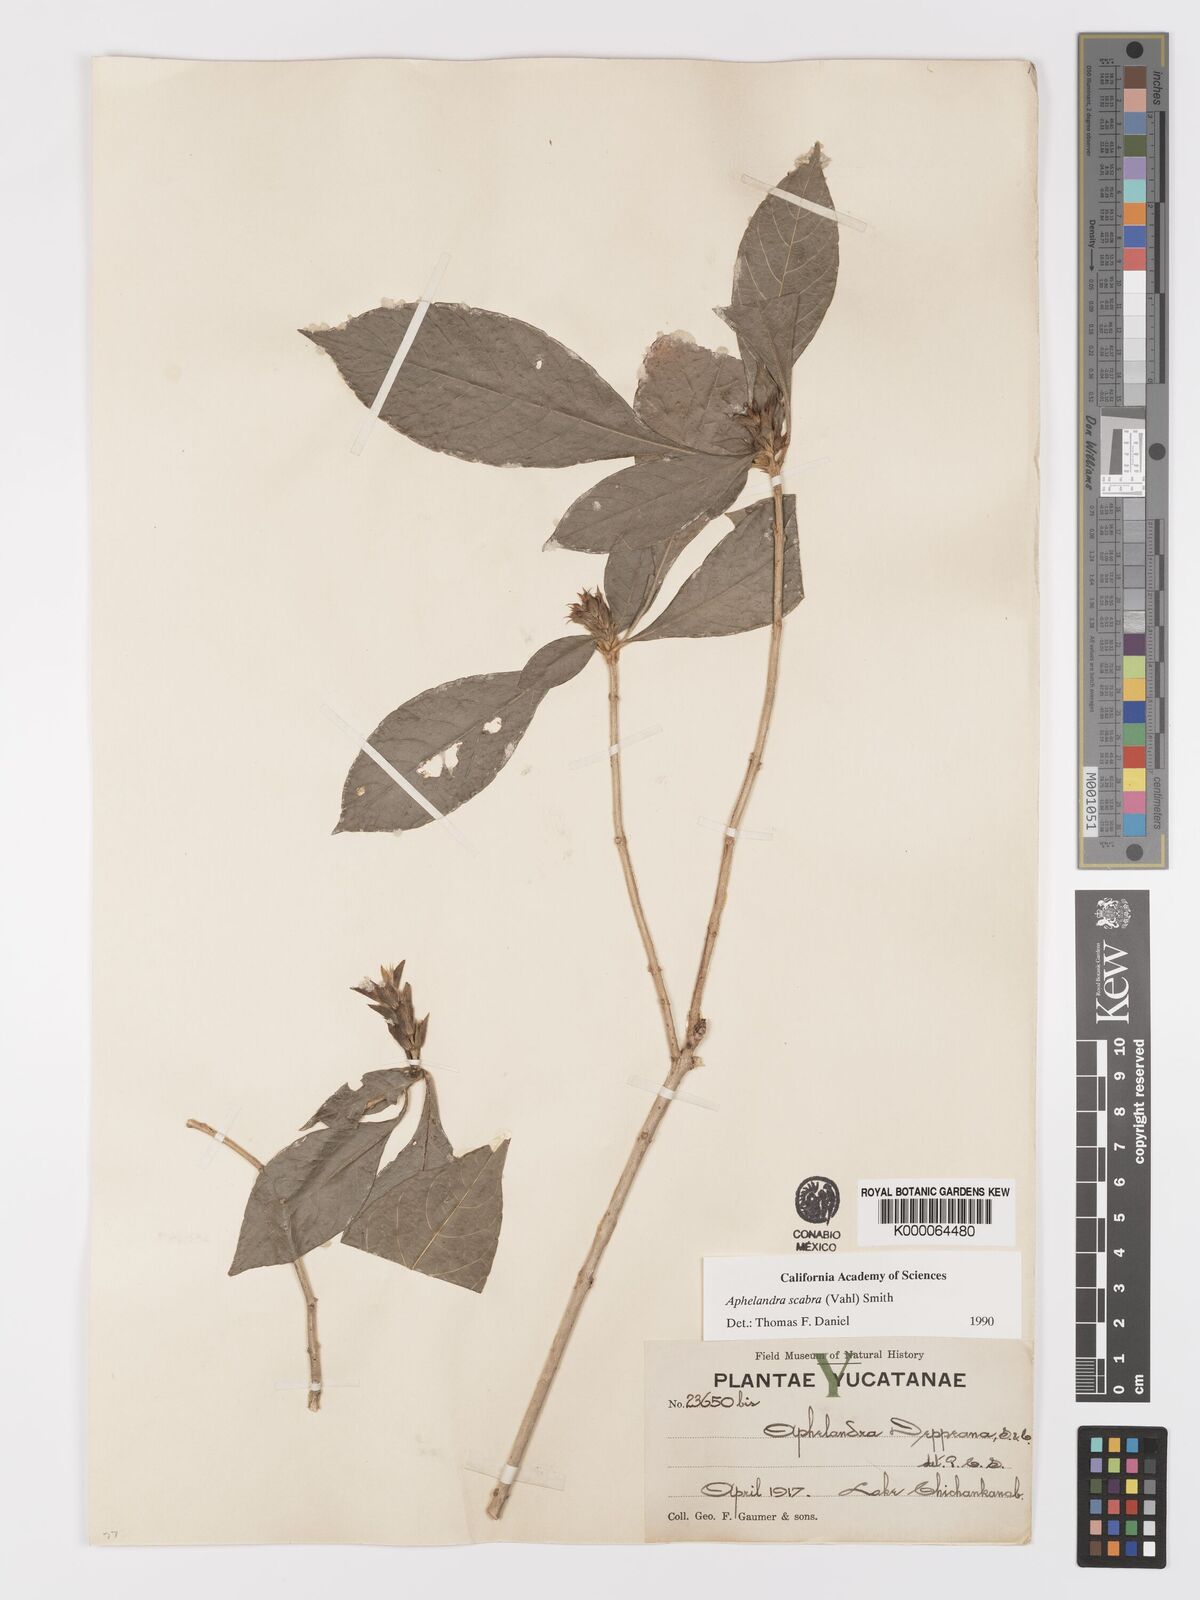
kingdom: Plantae
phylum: Tracheophyta
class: Magnoliopsida
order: Lamiales
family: Acanthaceae
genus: Aphelandra
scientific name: Aphelandra scabra
